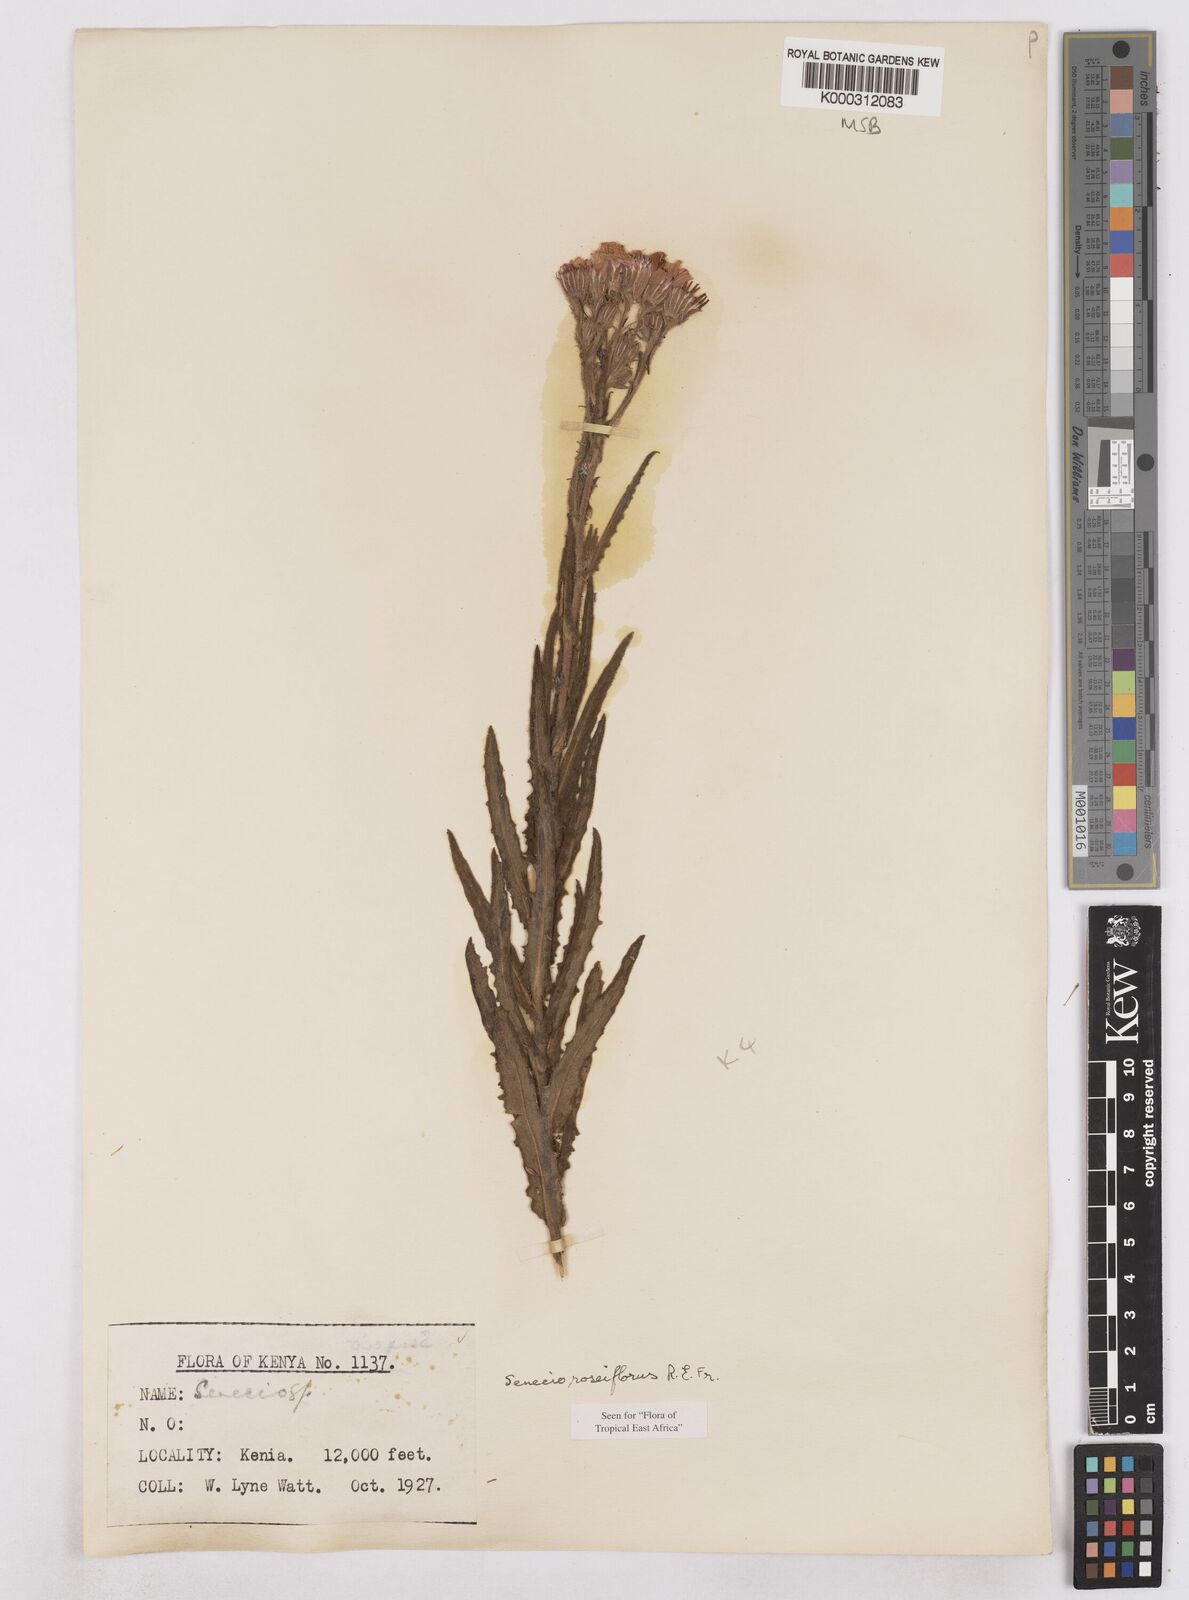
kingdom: Plantae
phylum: Tracheophyta
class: Magnoliopsida
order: Asterales
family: Asteraceae
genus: Senecio
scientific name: Senecio roseiflorus
